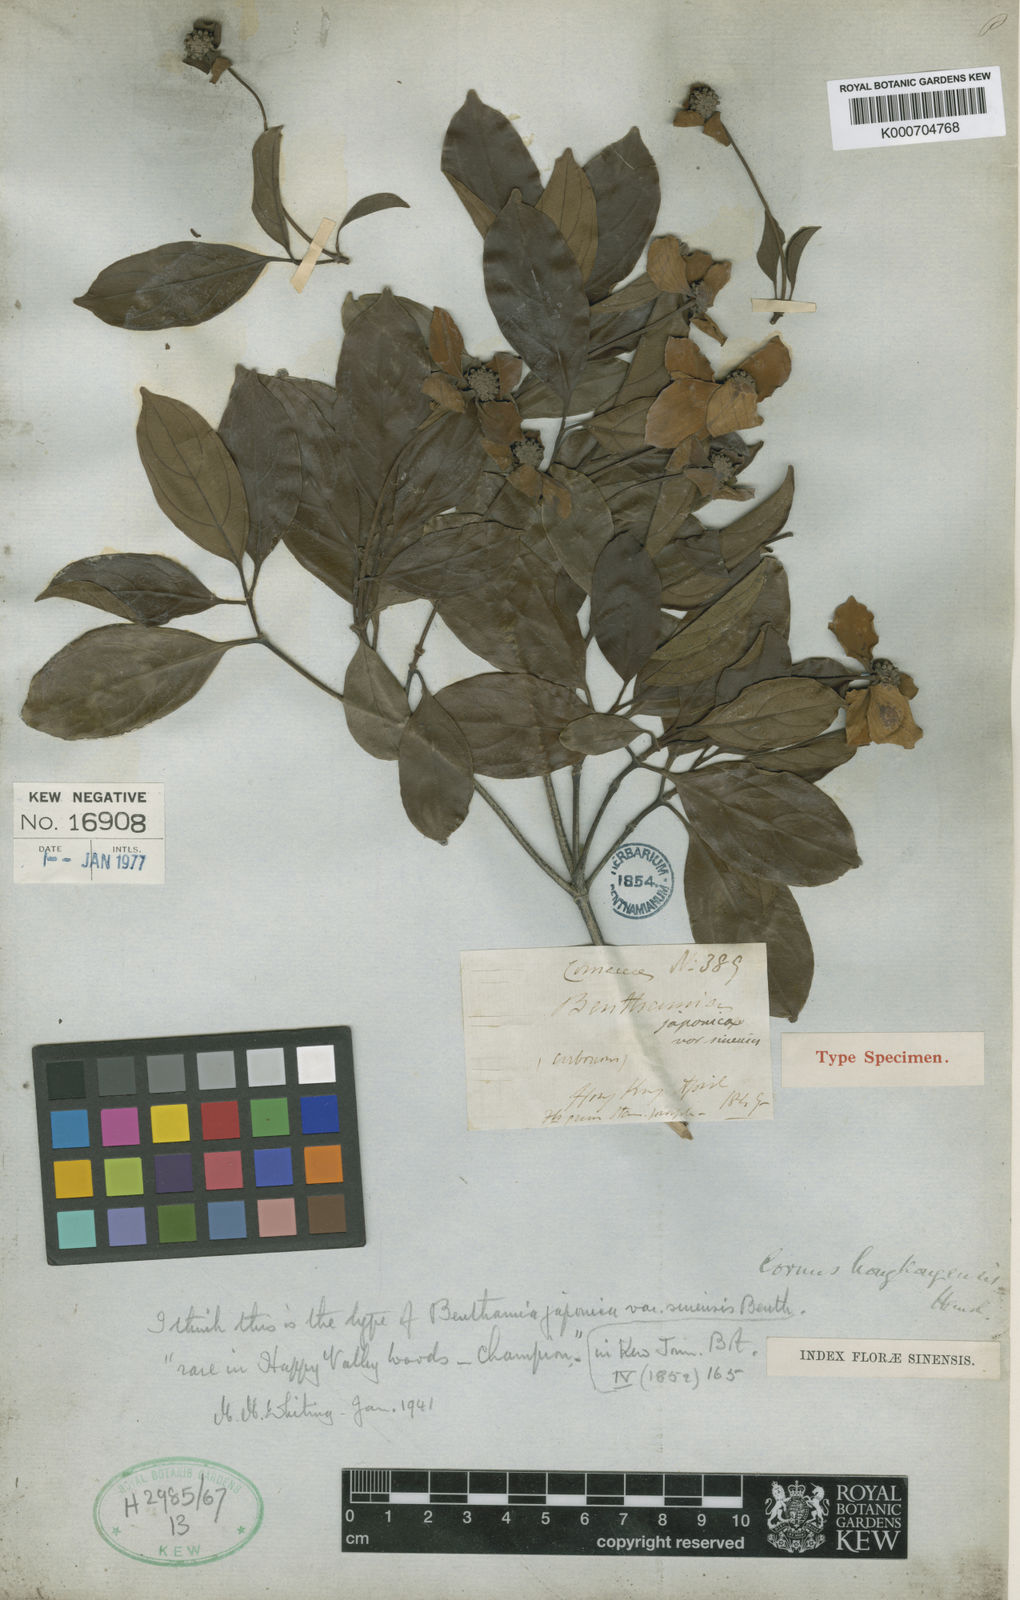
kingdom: Plantae
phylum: Tracheophyta
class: Magnoliopsida
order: Cornales
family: Cornaceae
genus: Cornus
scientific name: Cornus hongkongensis
